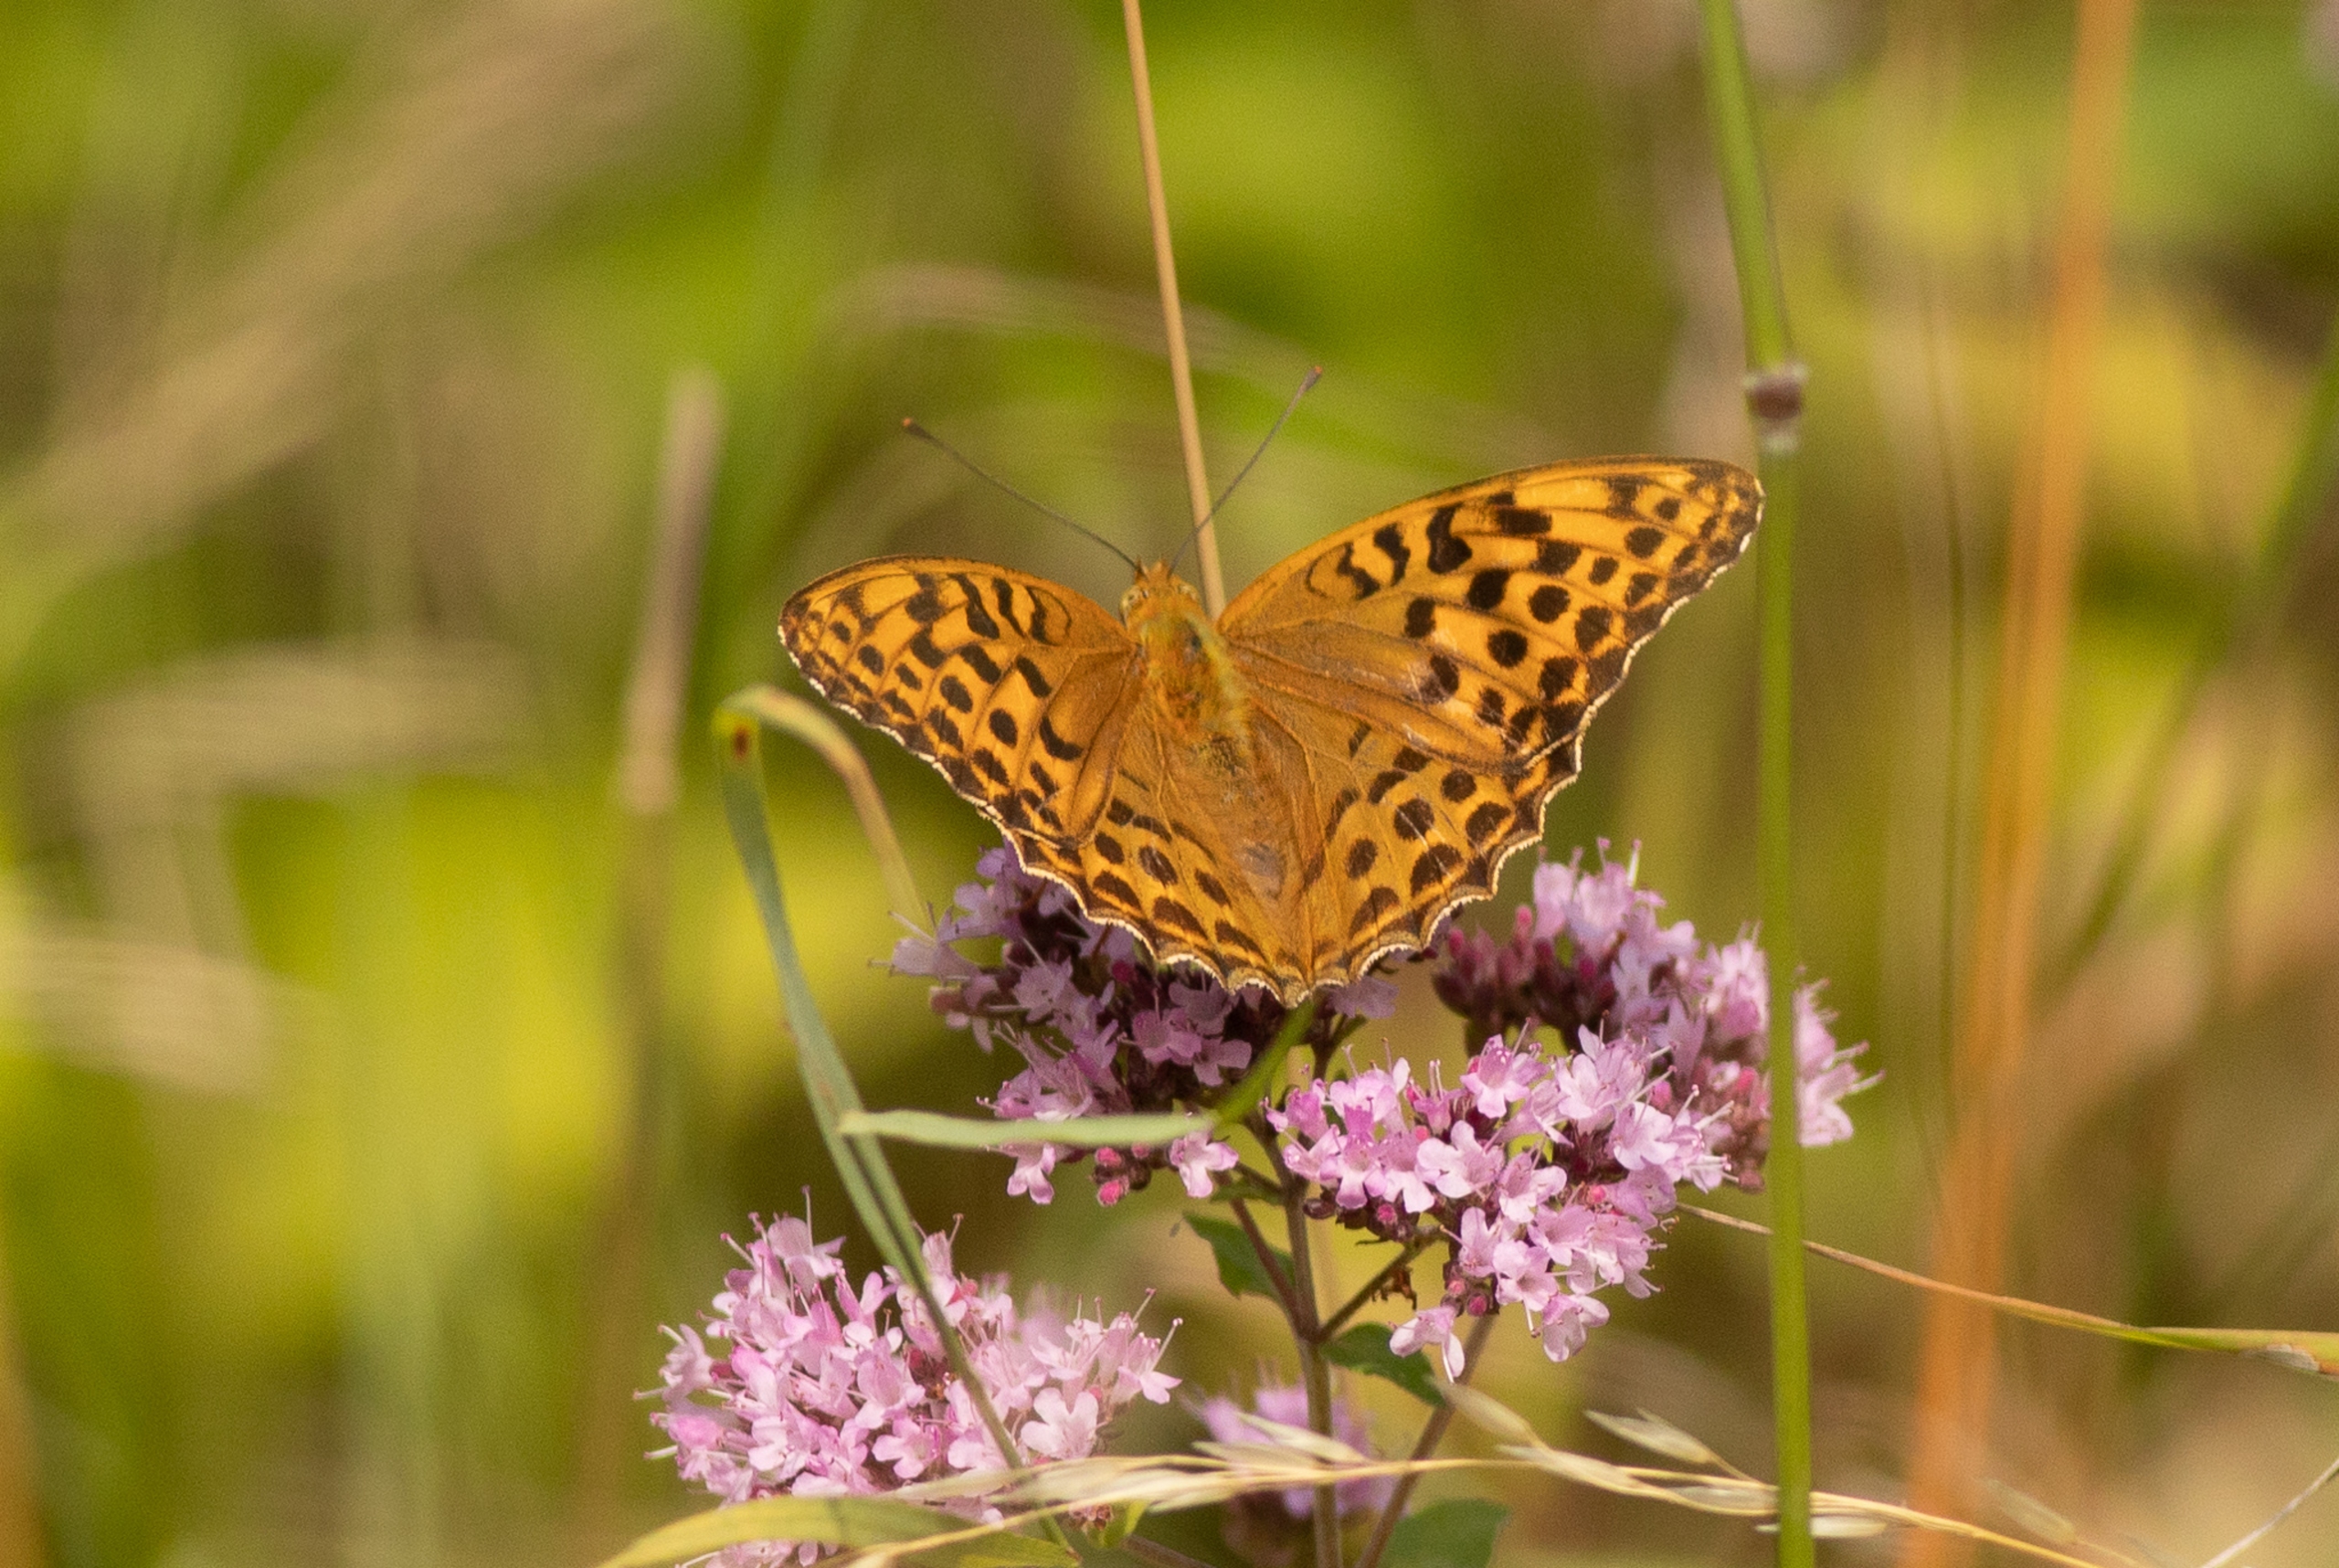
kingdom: Animalia
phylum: Arthropoda
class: Insecta
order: Lepidoptera
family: Nymphalidae
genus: Argynnis
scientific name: Argynnis paphia
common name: Kejserkåbe
